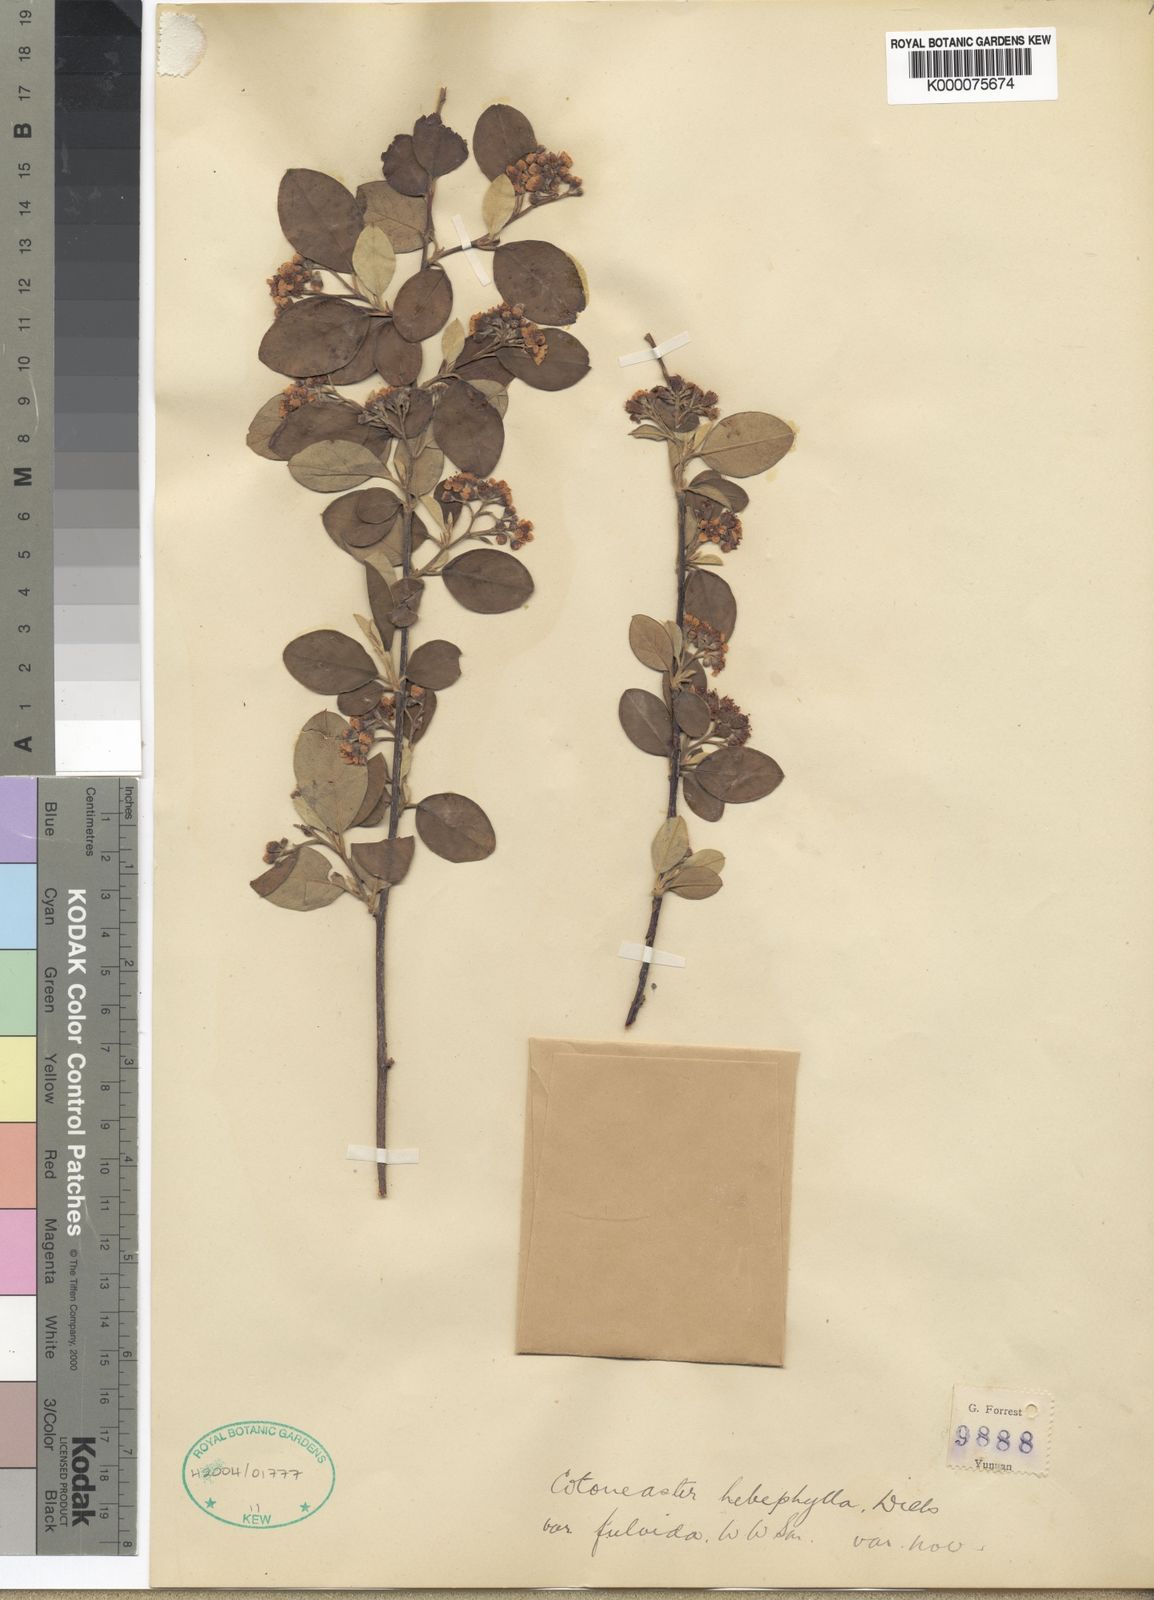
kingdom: Plantae
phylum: Tracheophyta
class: Magnoliopsida
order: Rosales
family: Rosaceae
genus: Cotoneaster
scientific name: Cotoneaster hebephyllus
